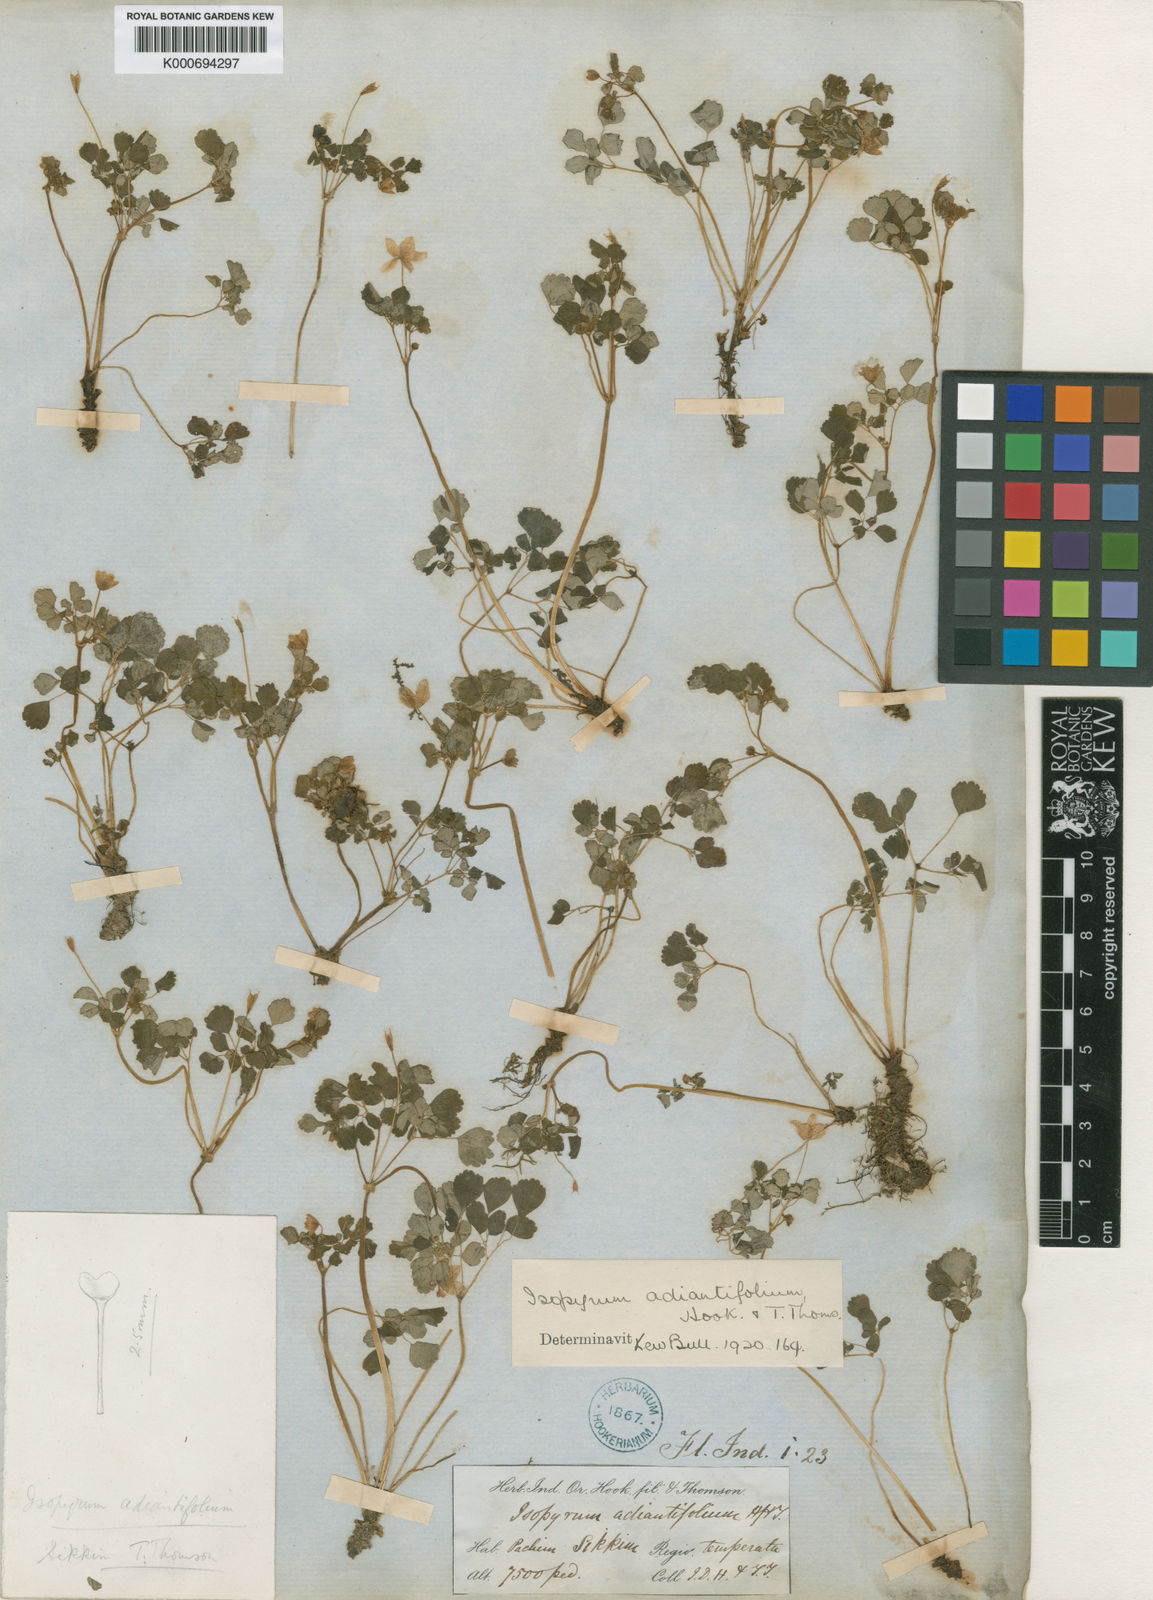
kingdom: Plantae
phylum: Tracheophyta
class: Magnoliopsida
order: Ranunculales
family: Ranunculaceae
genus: Dichocarpum
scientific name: Dichocarpum adiantifolium
